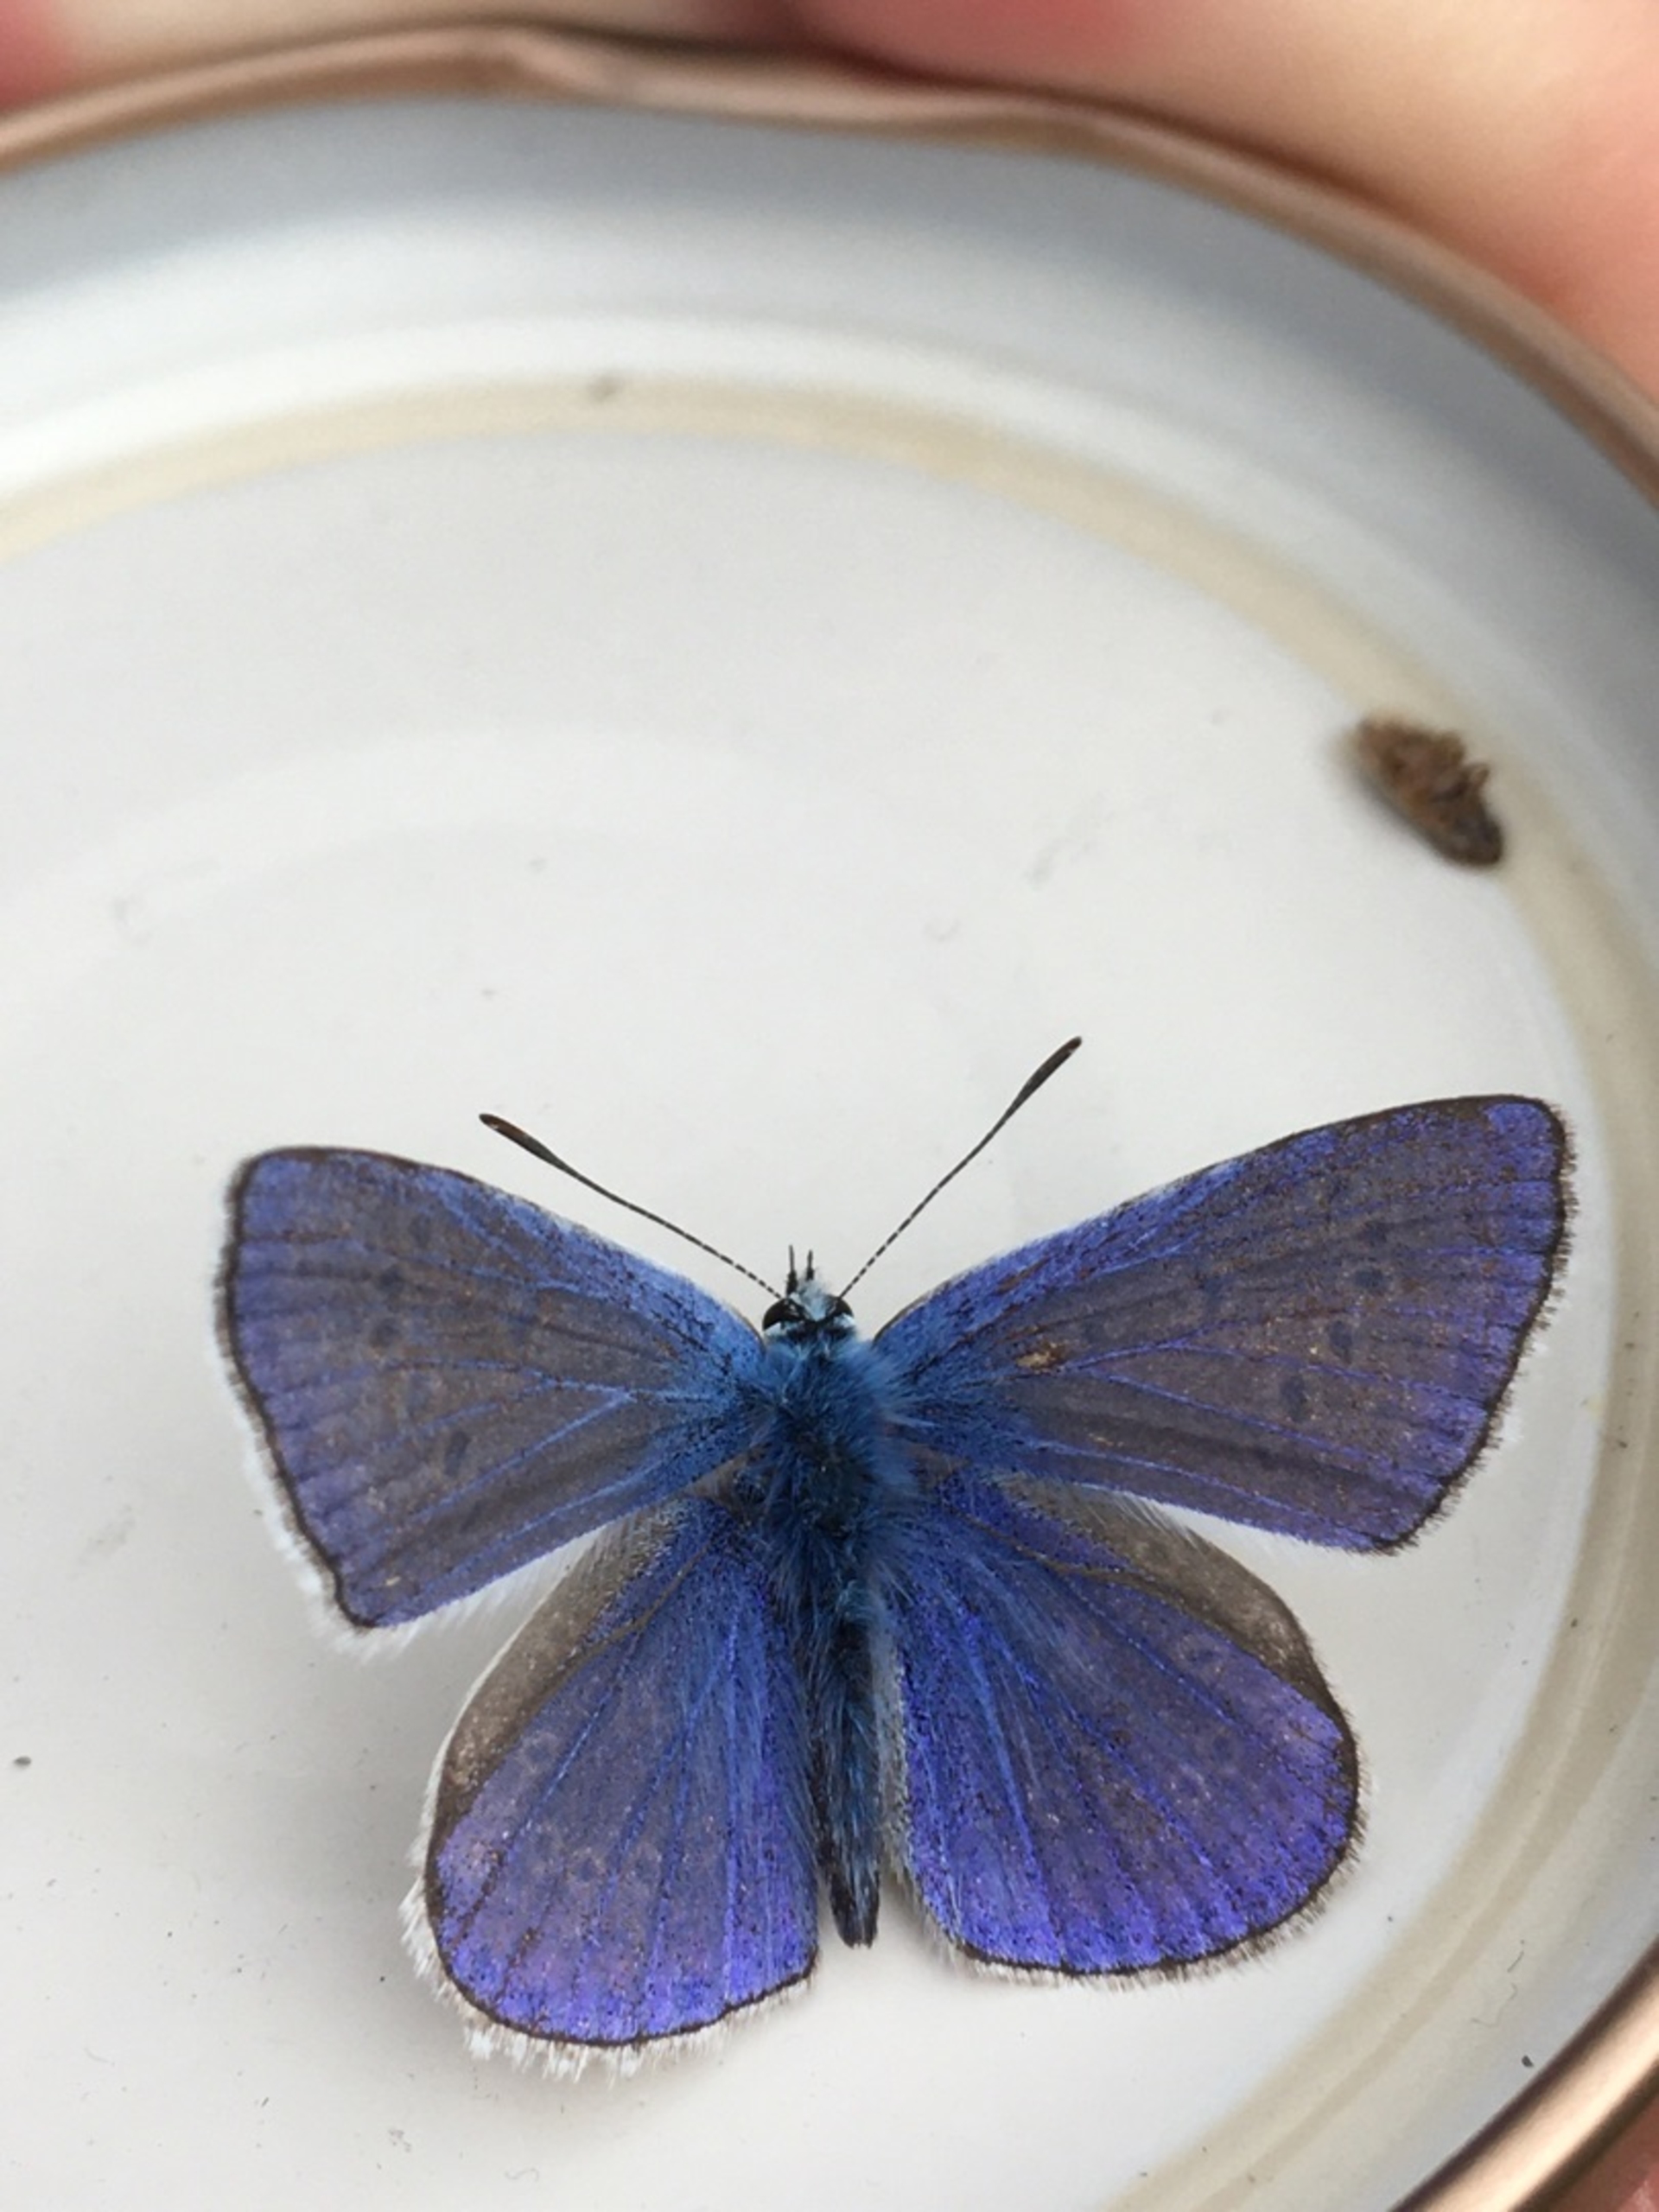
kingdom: Animalia
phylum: Arthropoda
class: Insecta
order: Lepidoptera
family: Lycaenidae
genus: Polyommatus
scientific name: Polyommatus icarus
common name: Almindelig blåfugl
